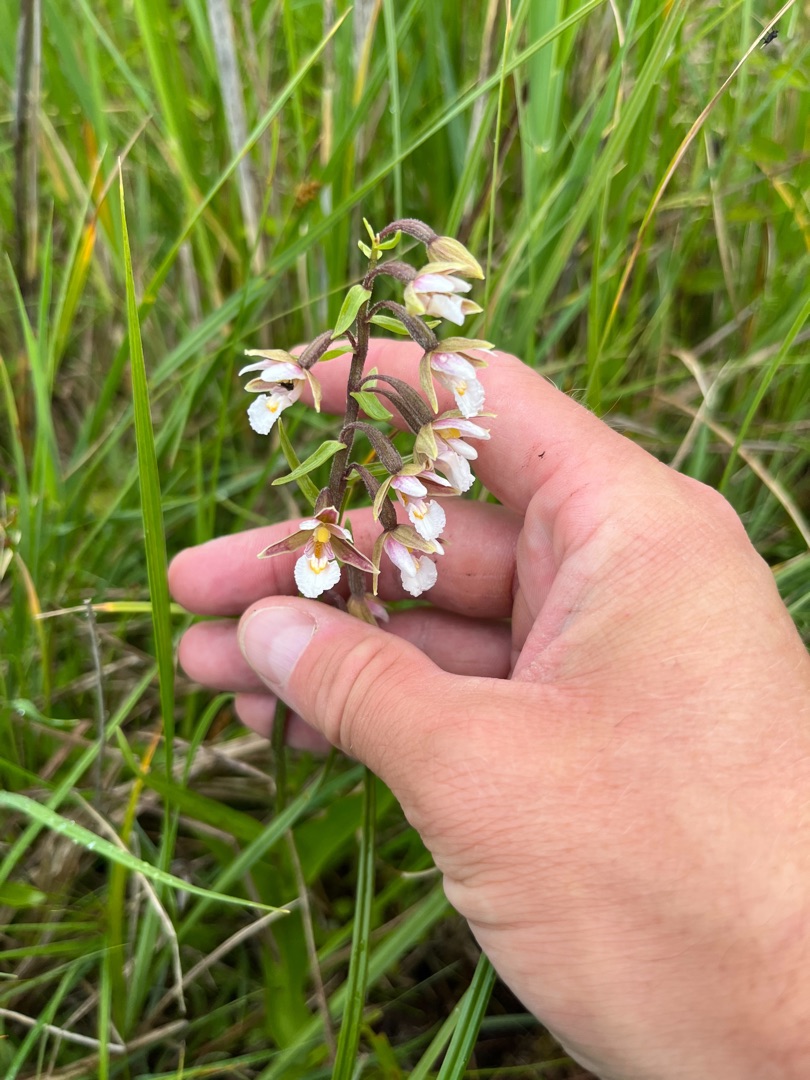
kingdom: Plantae
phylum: Tracheophyta
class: Liliopsida
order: Asparagales
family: Orchidaceae
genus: Epipactis
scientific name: Epipactis palustris
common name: Sump-hullæbe
